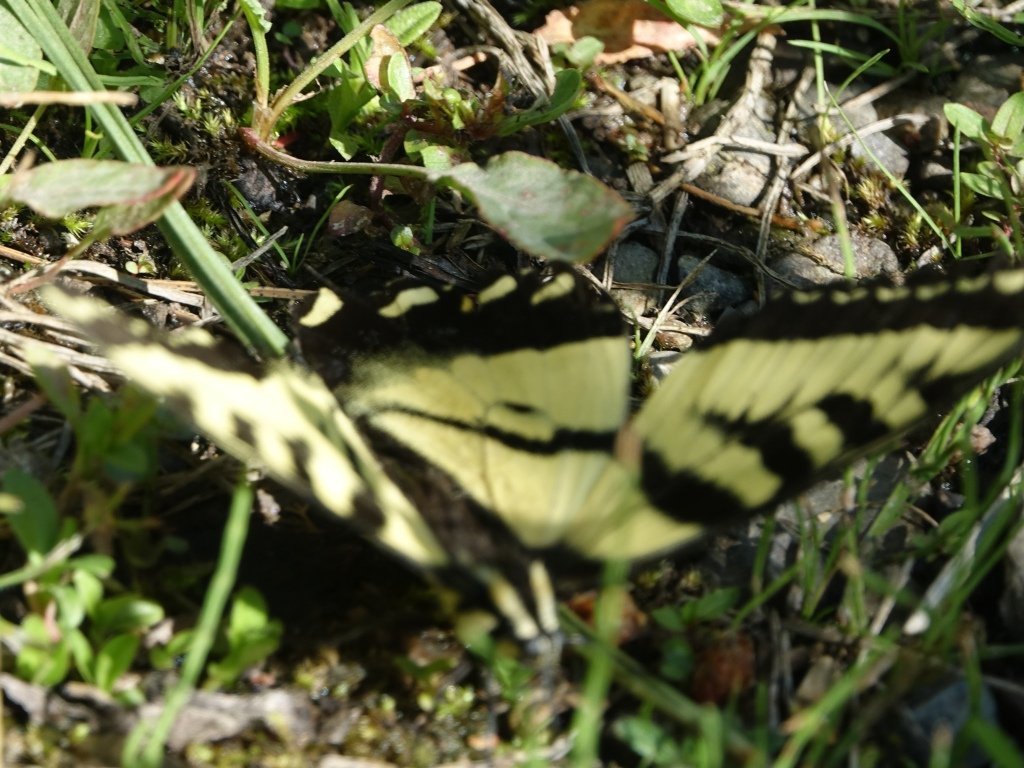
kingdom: Animalia
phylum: Arthropoda
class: Insecta
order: Lepidoptera
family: Papilionidae
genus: Pterourus
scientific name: Pterourus rutulus
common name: Western Tiger Swallowtail
